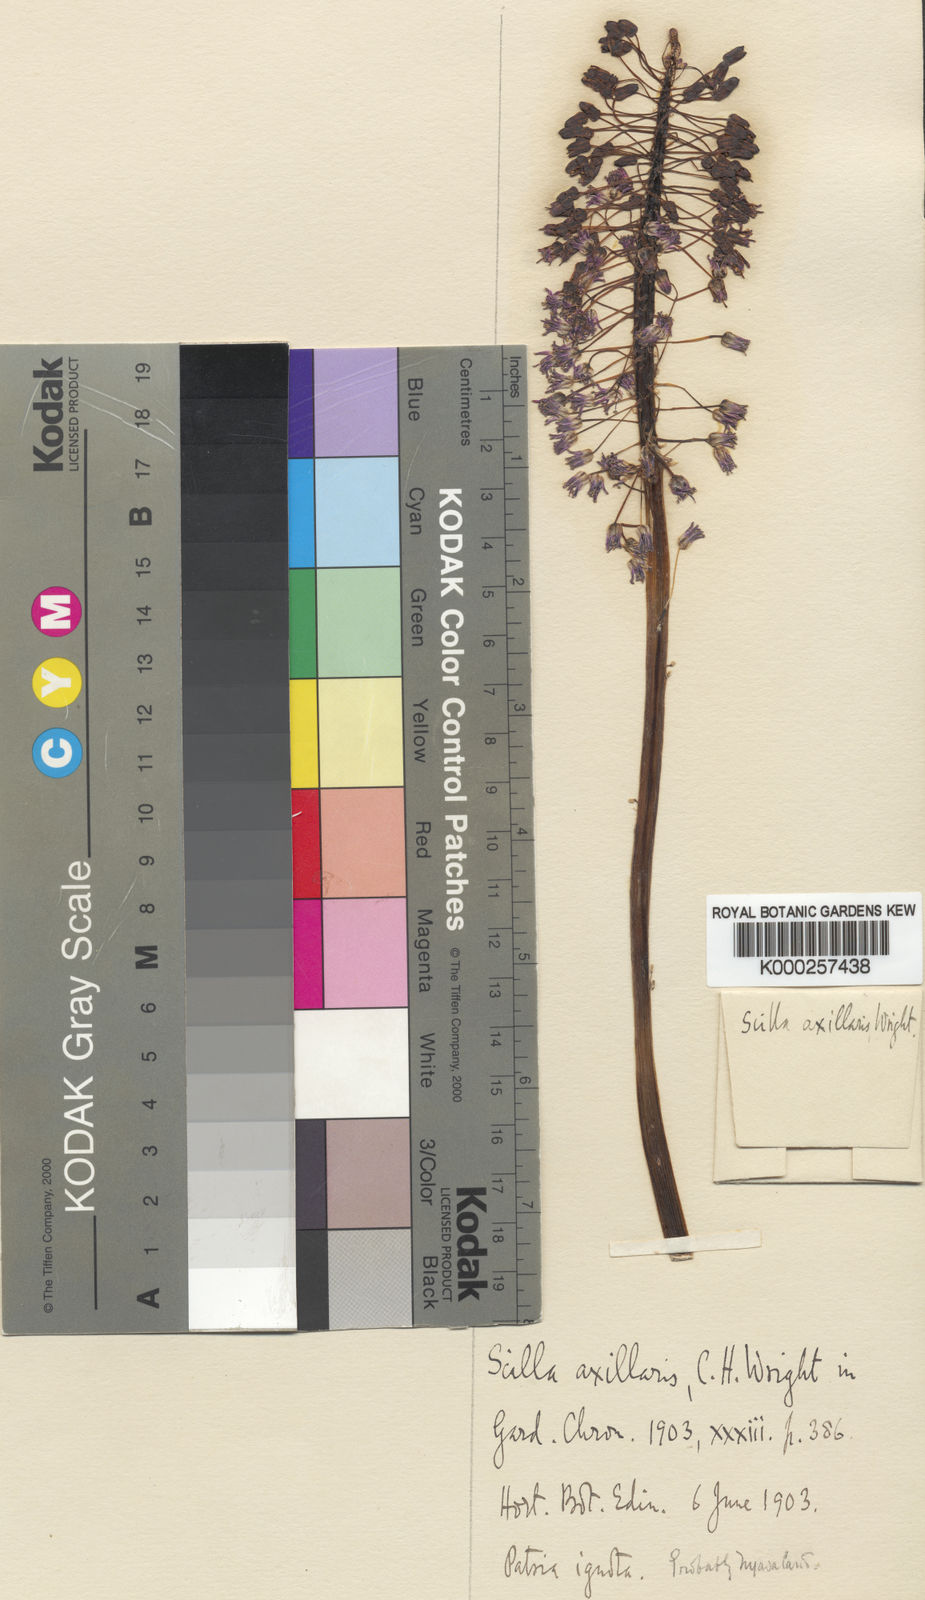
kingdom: Plantae
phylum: Tracheophyta
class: Liliopsida
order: Asparagales
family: Asparagaceae
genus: Scilla
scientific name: Scilla axillaris
